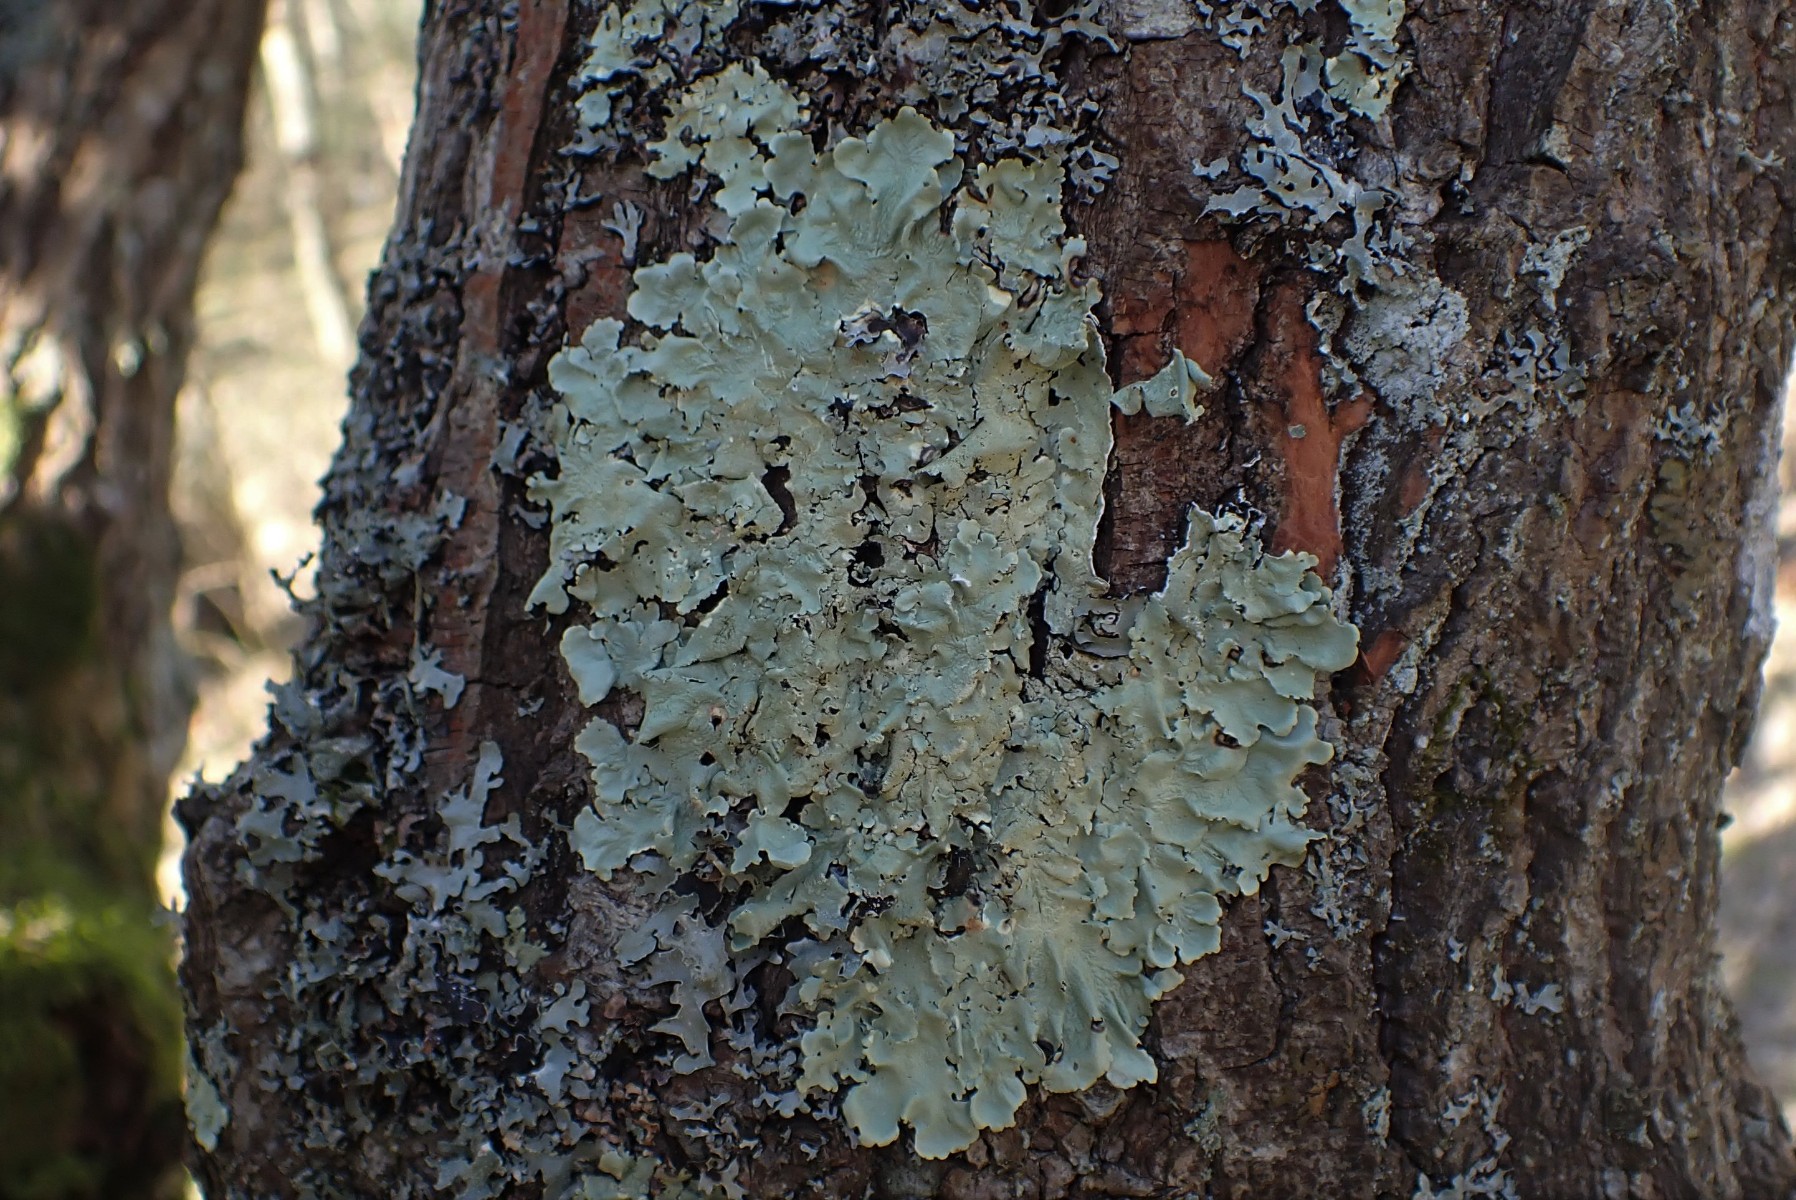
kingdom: Fungi
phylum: Ascomycota
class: Lecanoromycetes
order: Lecanorales
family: Parmeliaceae
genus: Flavoparmelia
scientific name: Flavoparmelia caperata
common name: gulgrøn skållav
